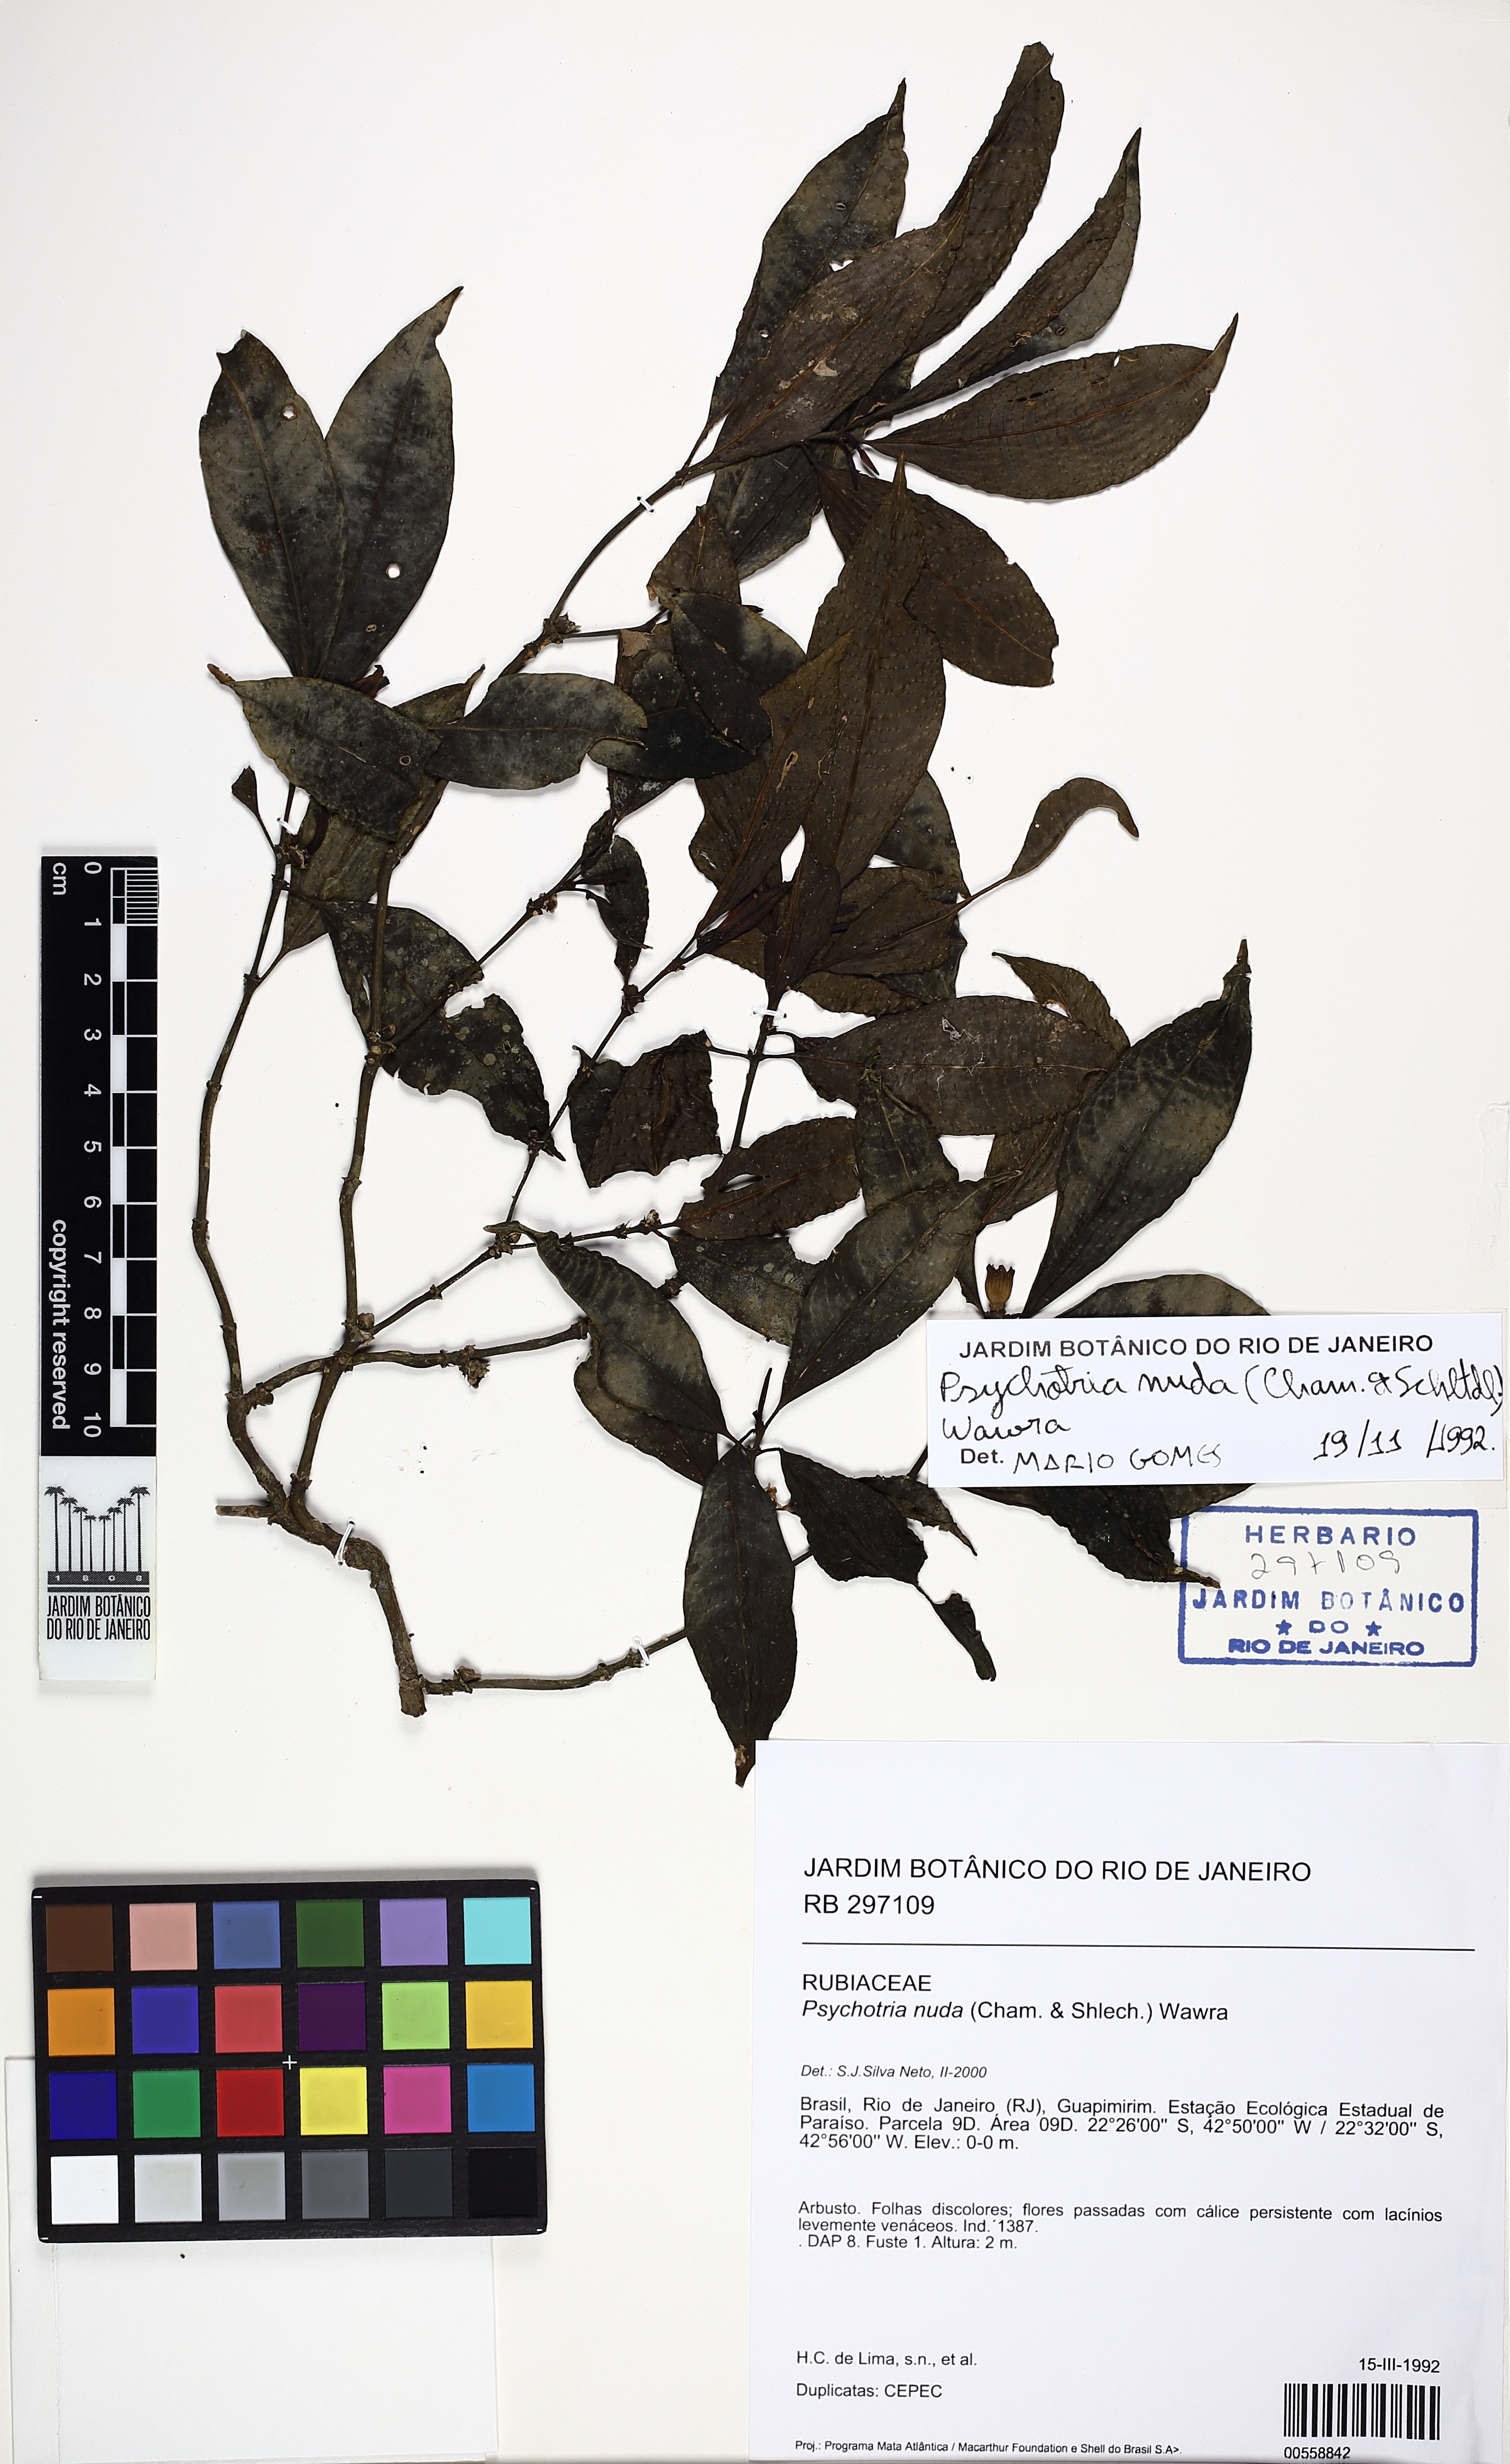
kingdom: Plantae
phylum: Tracheophyta
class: Magnoliopsida
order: Gentianales
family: Rubiaceae
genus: Psychotria
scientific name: Psychotria nuda
